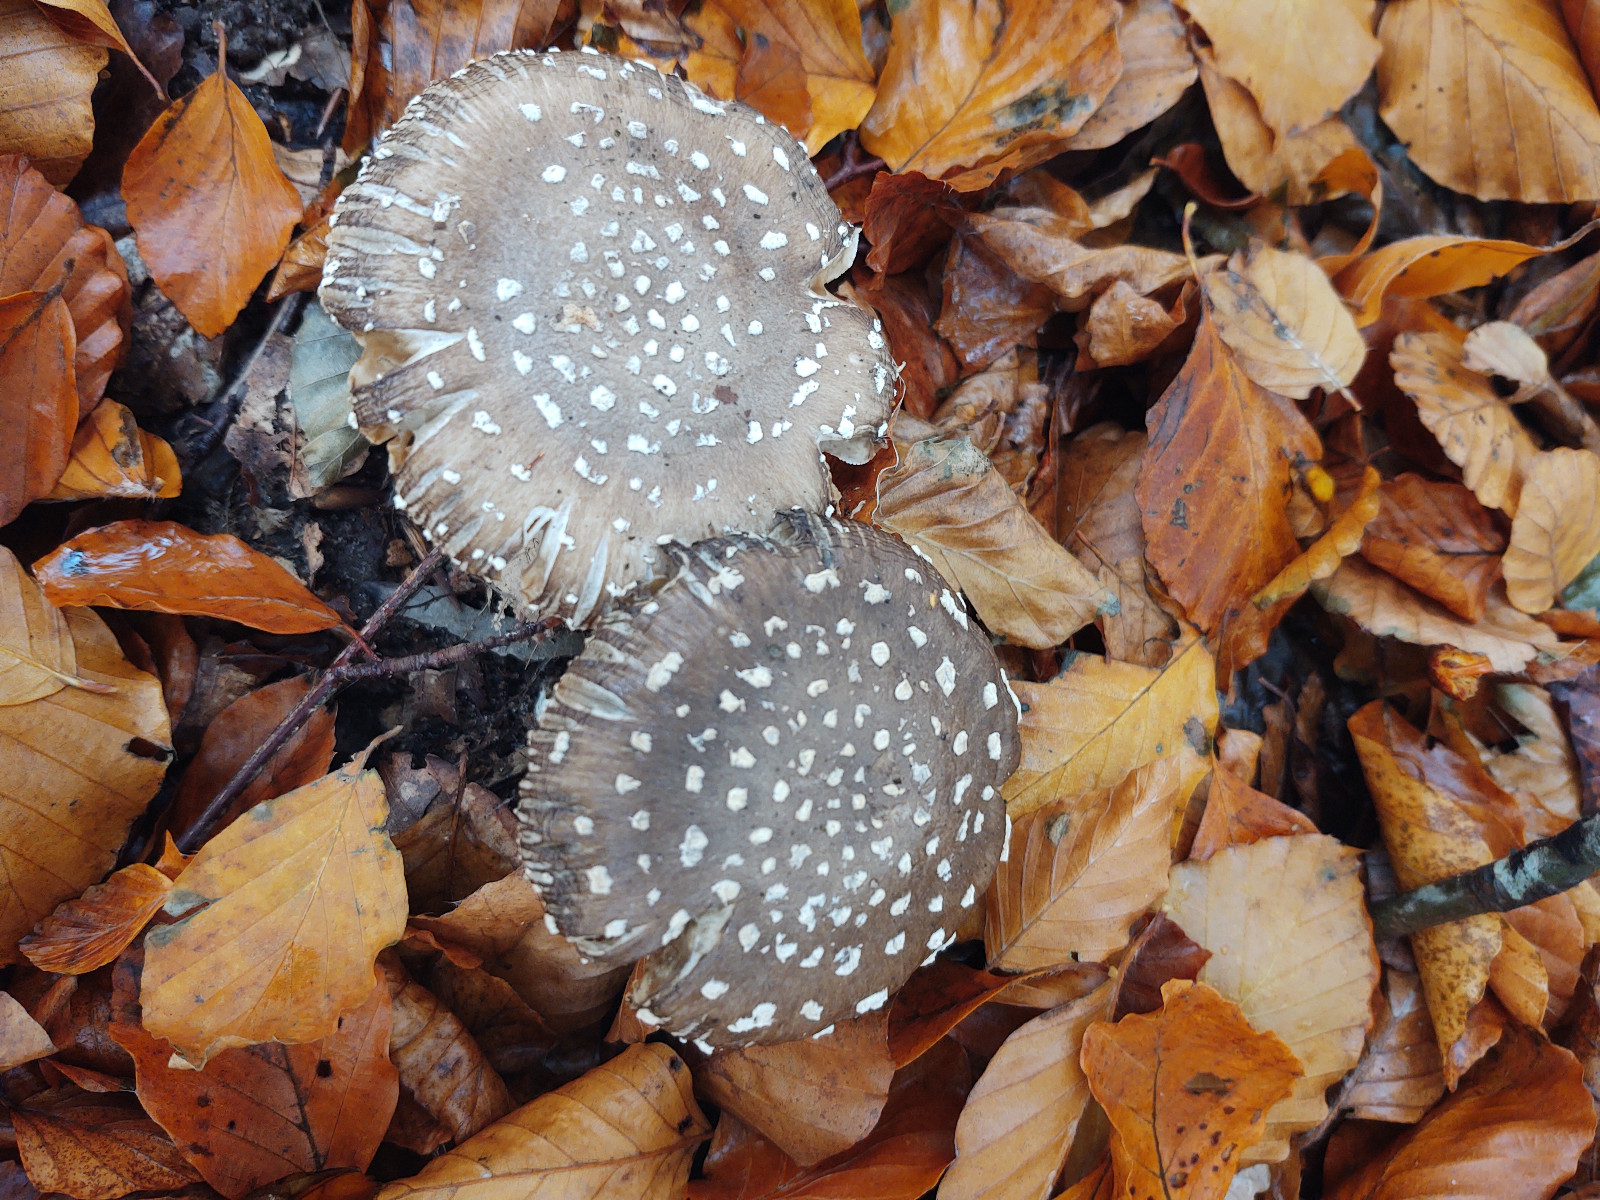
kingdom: Fungi
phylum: Basidiomycota
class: Agaricomycetes
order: Agaricales
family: Amanitaceae
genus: Amanita
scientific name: Amanita pantherina
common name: panter-fluesvamp
